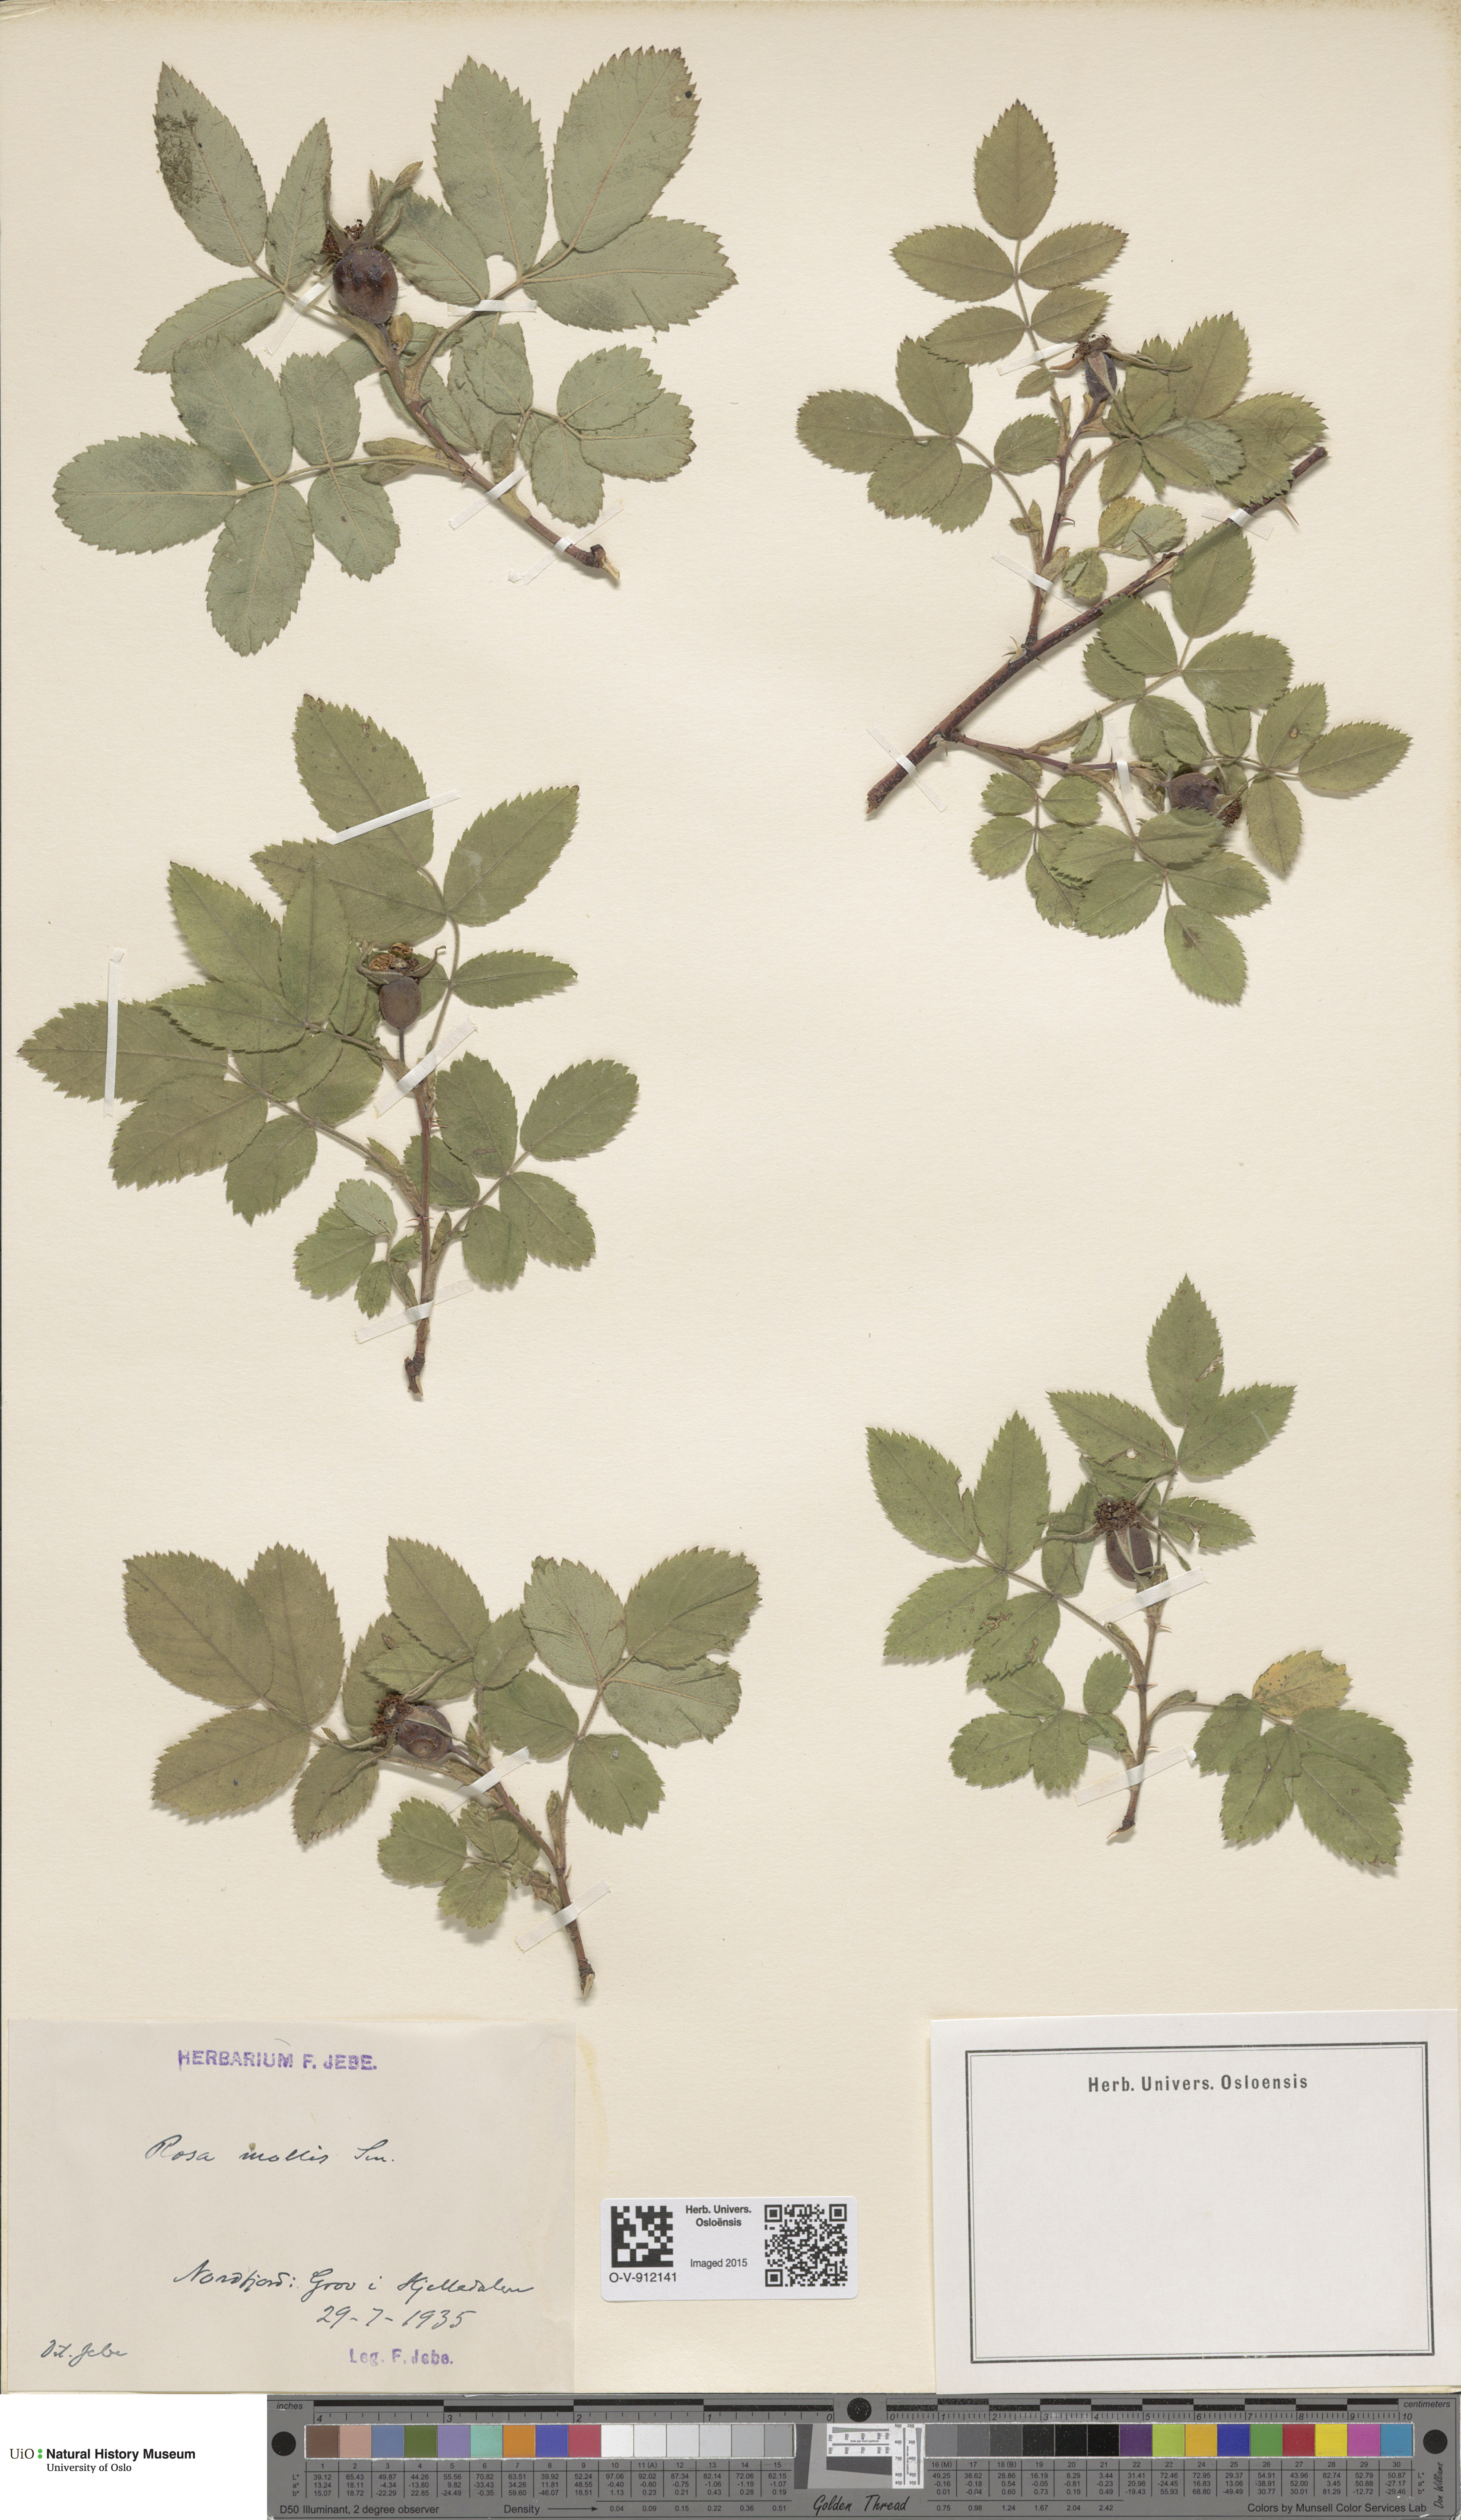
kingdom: Plantae
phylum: Tracheophyta
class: Magnoliopsida
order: Rosales
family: Rosaceae
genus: Rosa
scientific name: Rosa mollis
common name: Rose
